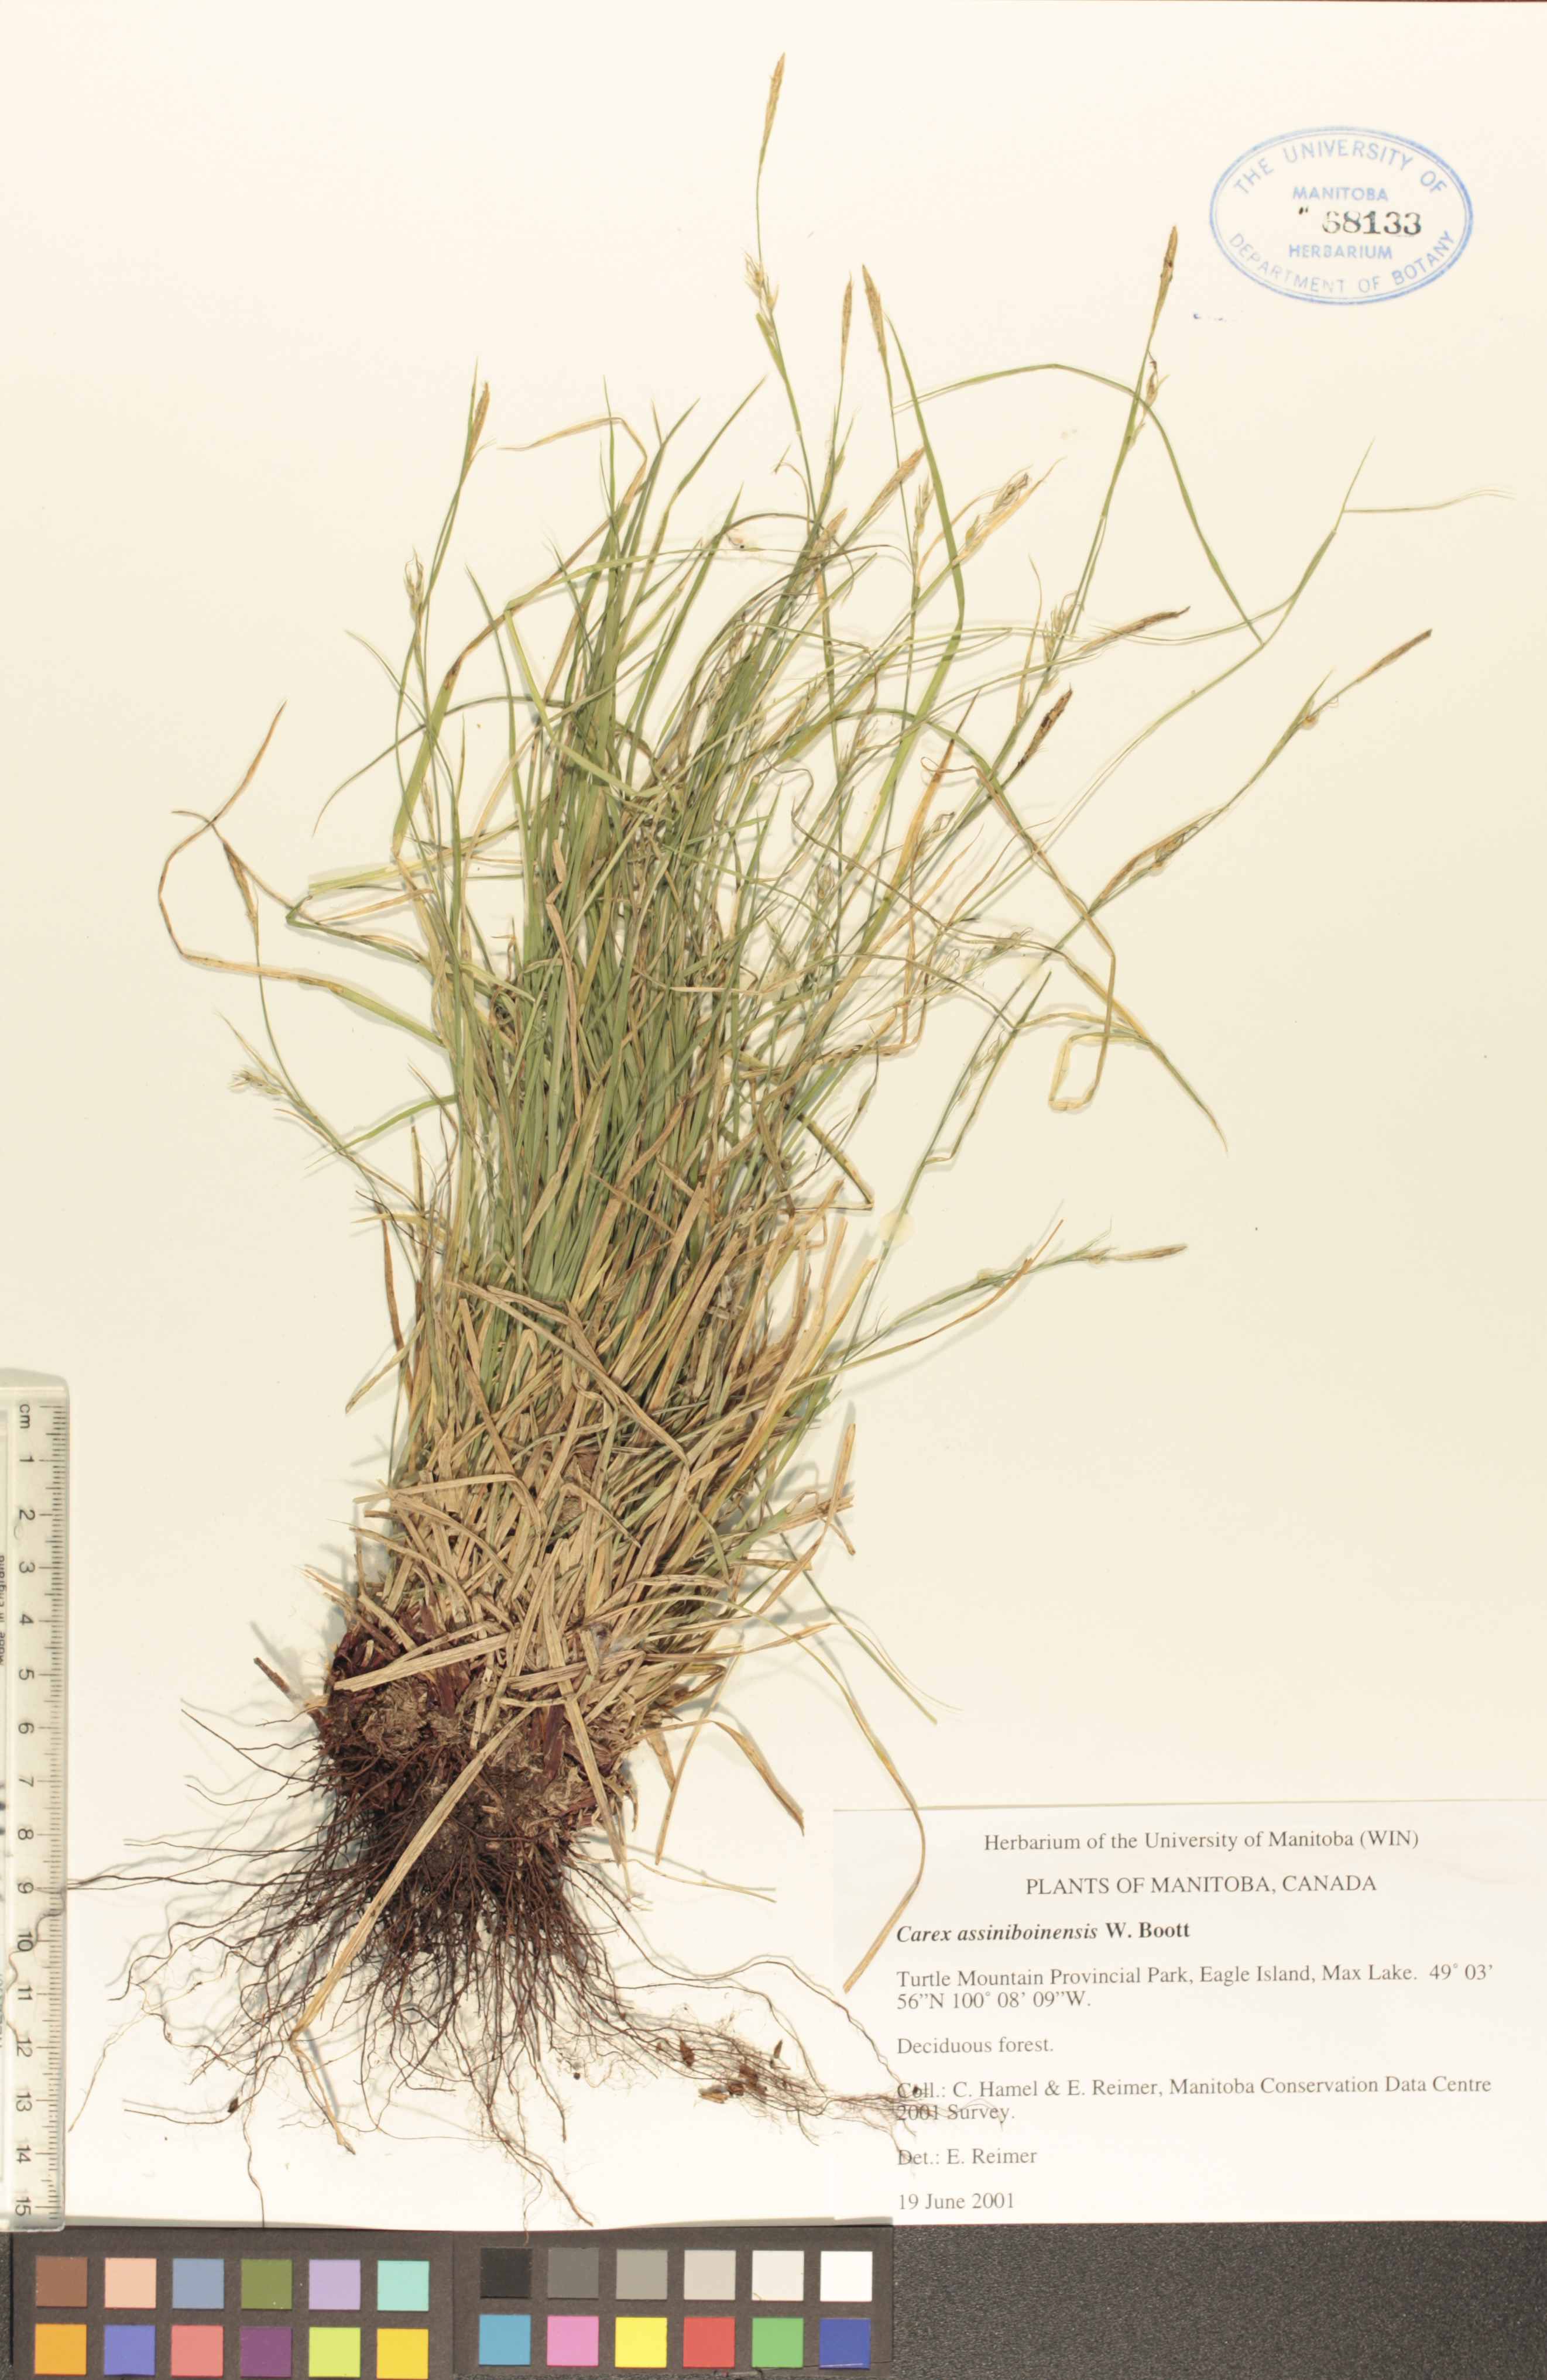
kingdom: Plantae
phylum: Tracheophyta
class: Liliopsida
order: Poales
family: Cyperaceae
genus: Carex
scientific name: Carex assiniboinensis
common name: Assiniboia sedge
